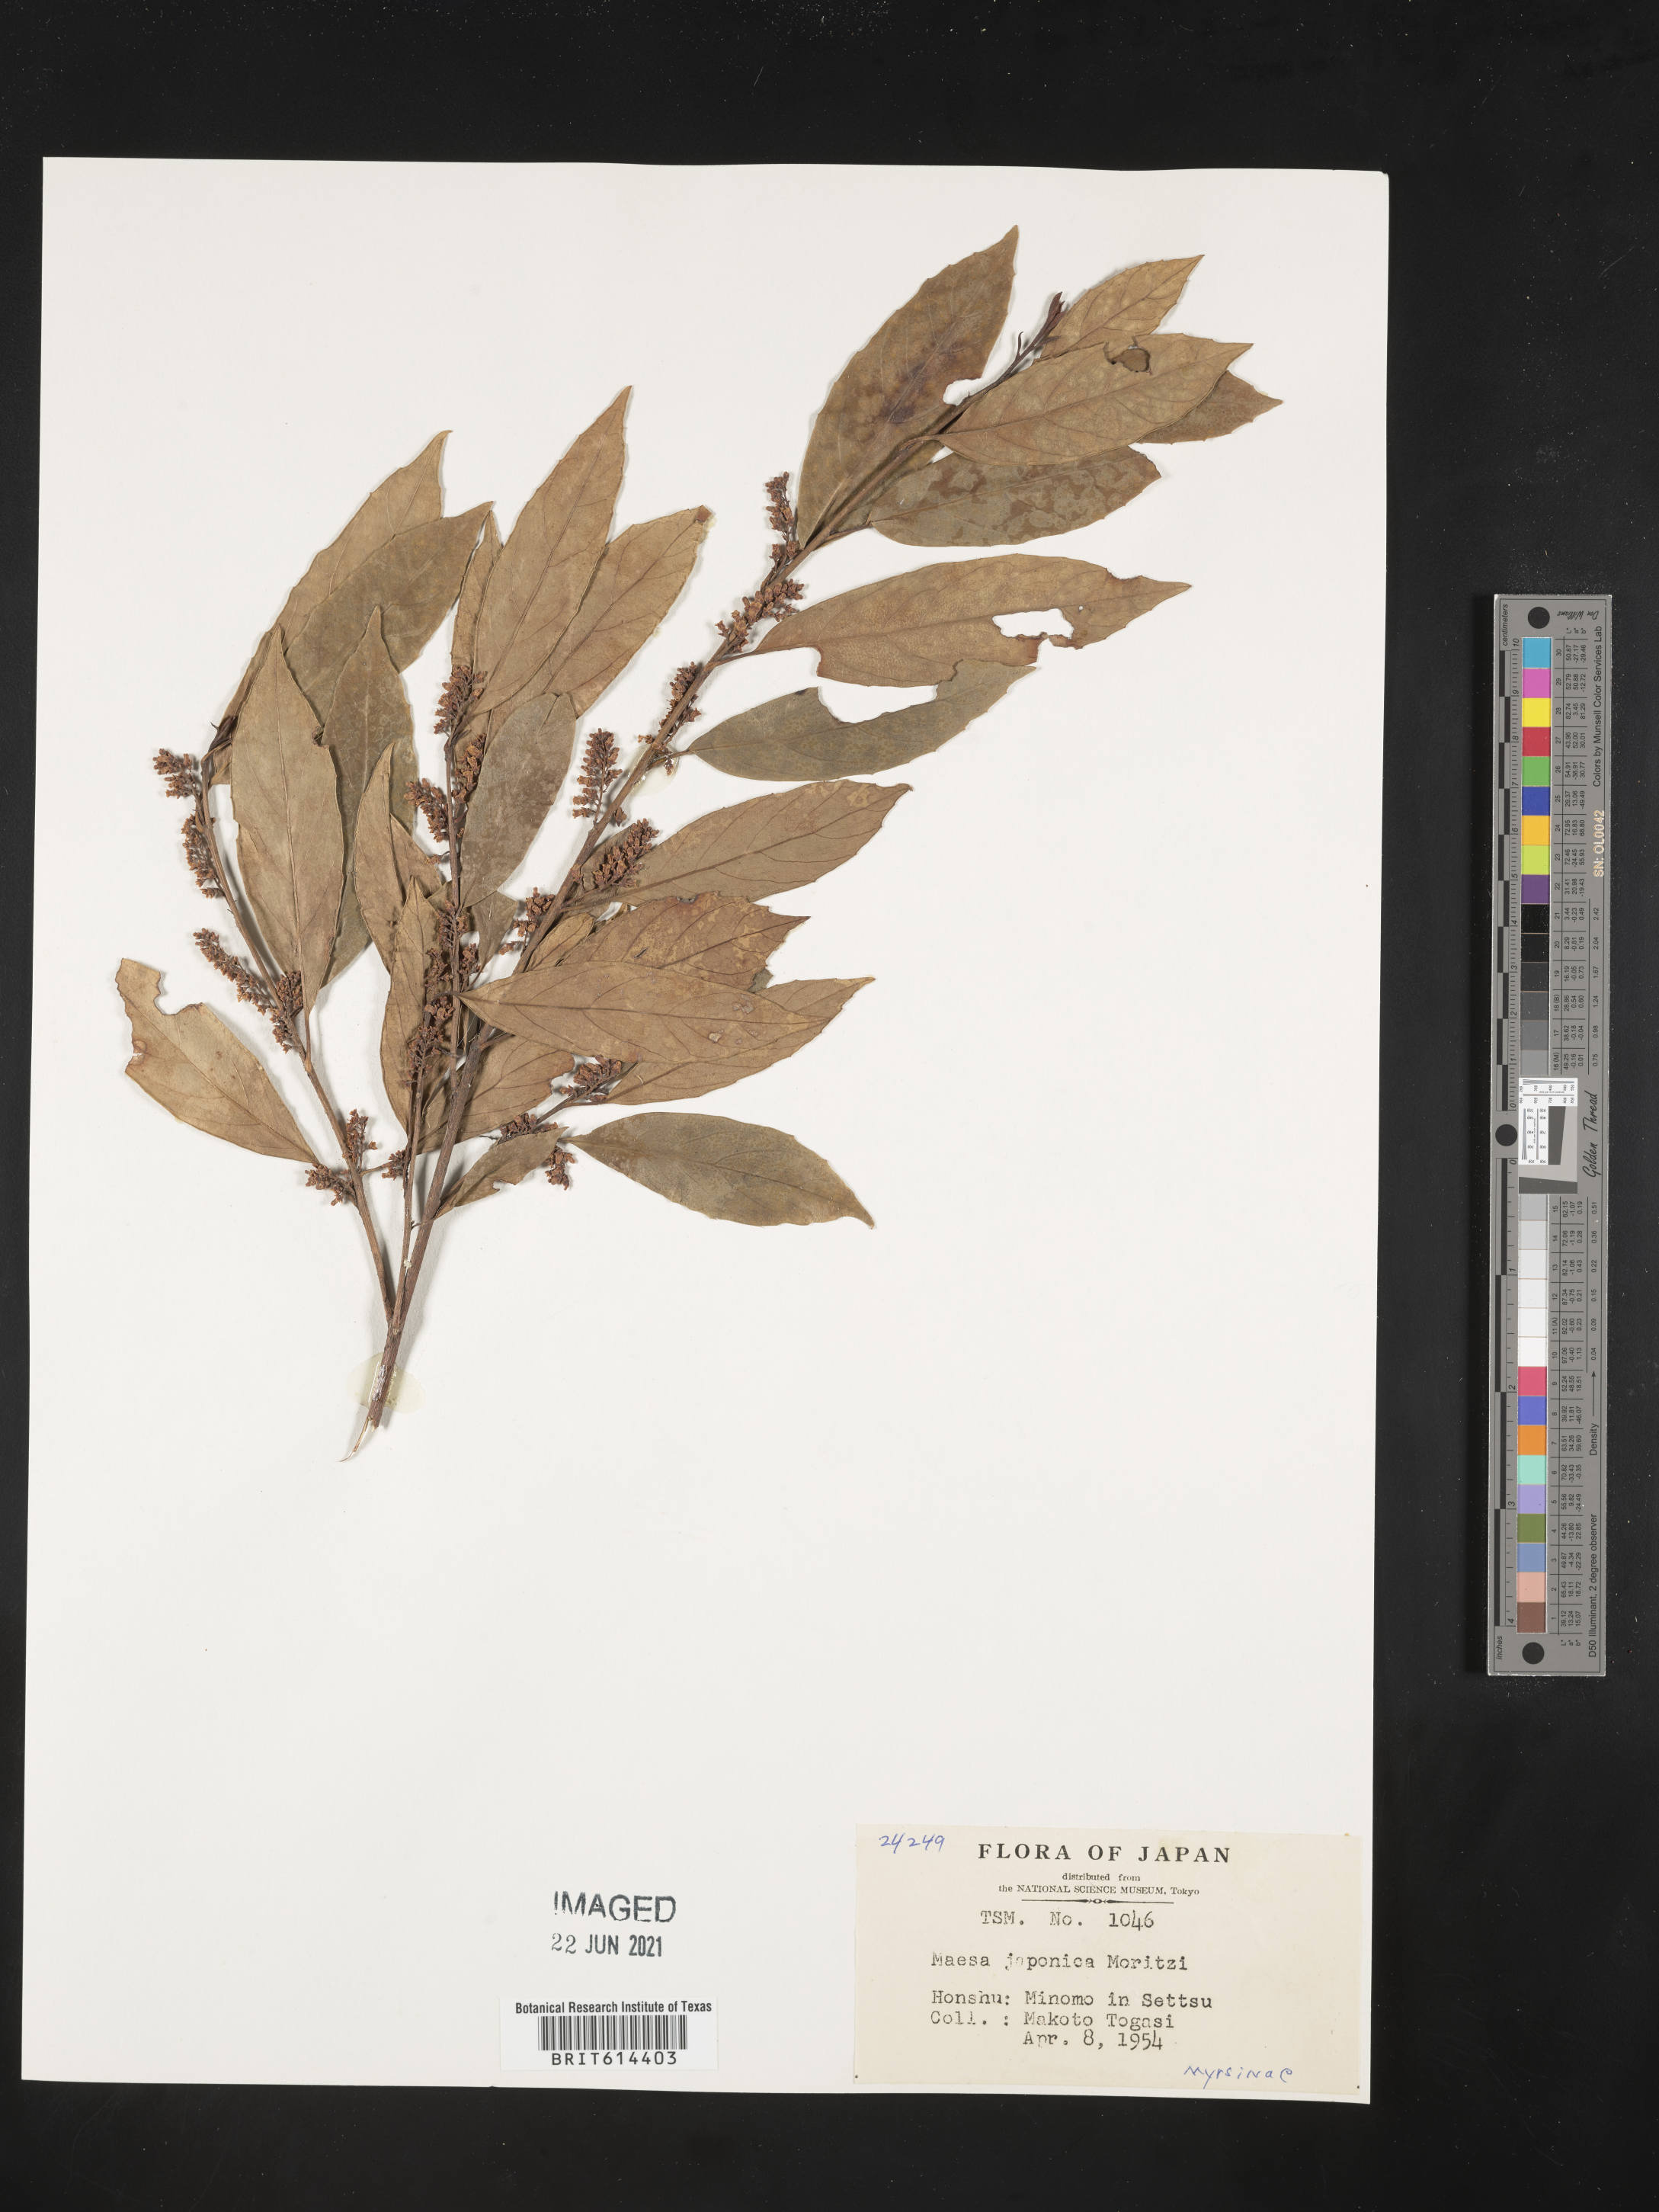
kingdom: Plantae
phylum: Tracheophyta
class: Magnoliopsida
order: Ericales
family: Primulaceae
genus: Maesa
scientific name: Maesa japonica
